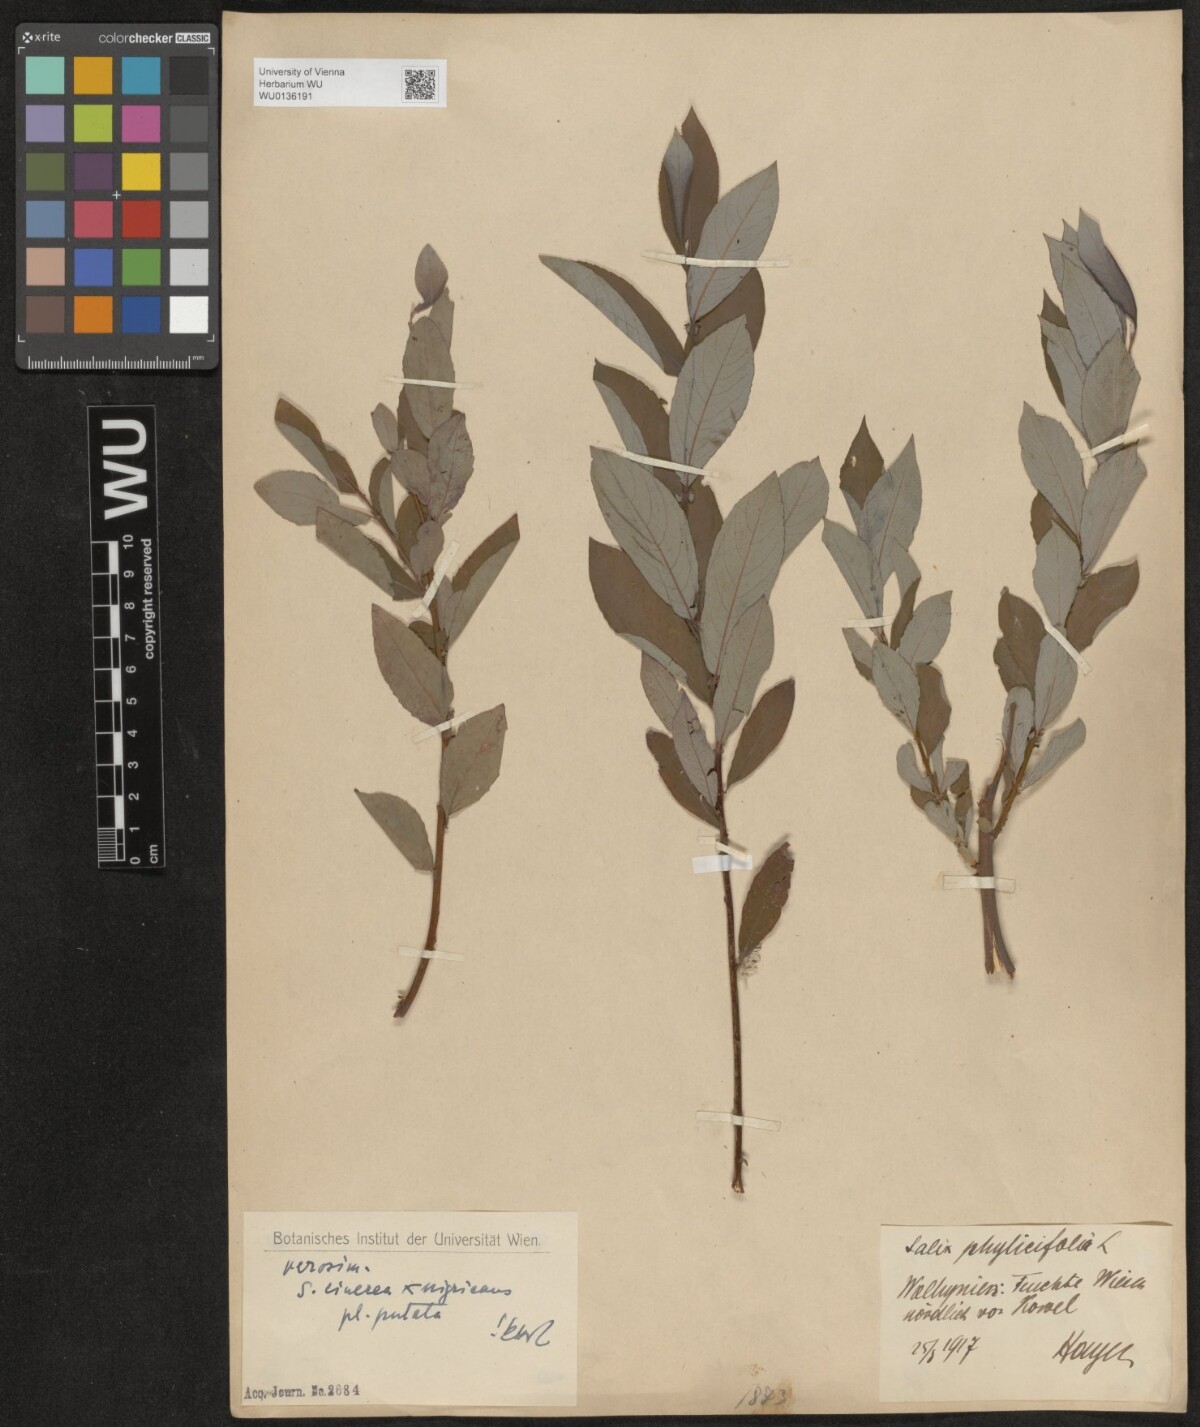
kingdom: Plantae
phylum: Tracheophyta
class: Magnoliopsida
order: Malpighiales
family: Salicaceae
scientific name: Salicaceae
